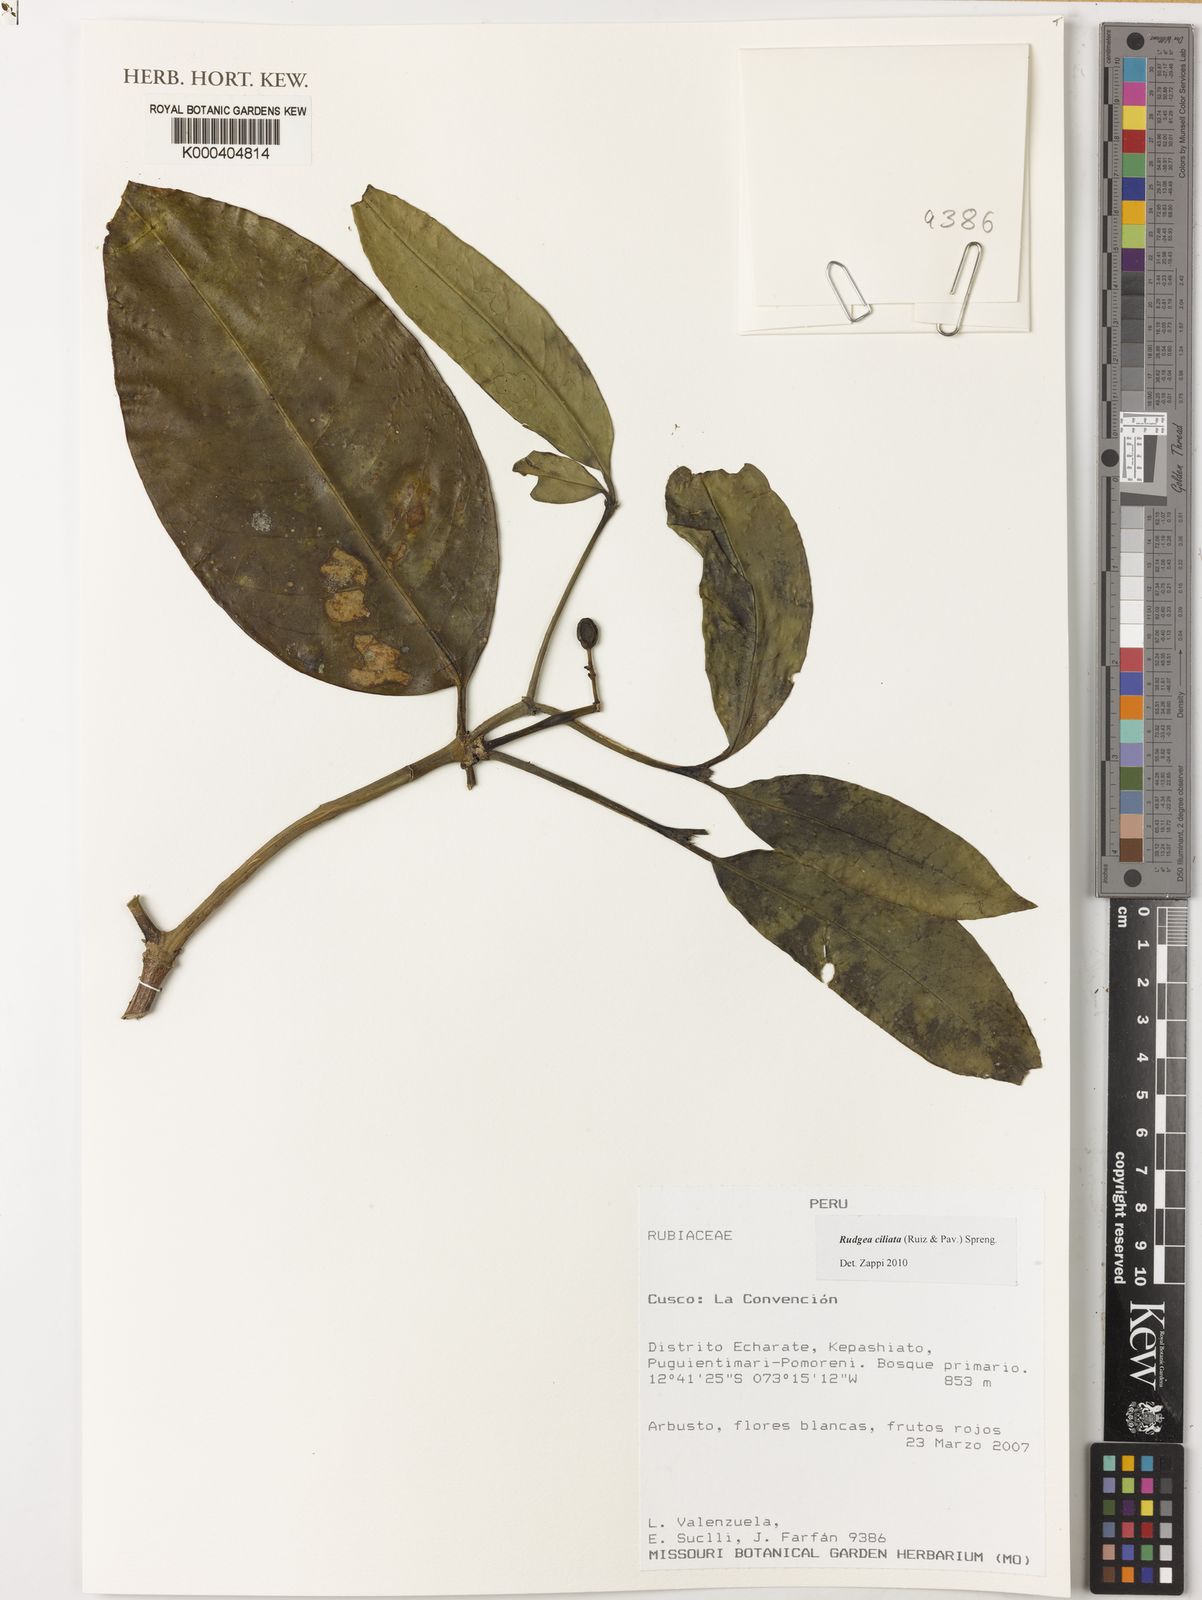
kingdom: Plantae
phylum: Tracheophyta
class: Magnoliopsida
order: Gentianales
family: Rubiaceae
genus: Rudgea
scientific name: Rudgea ciliata
